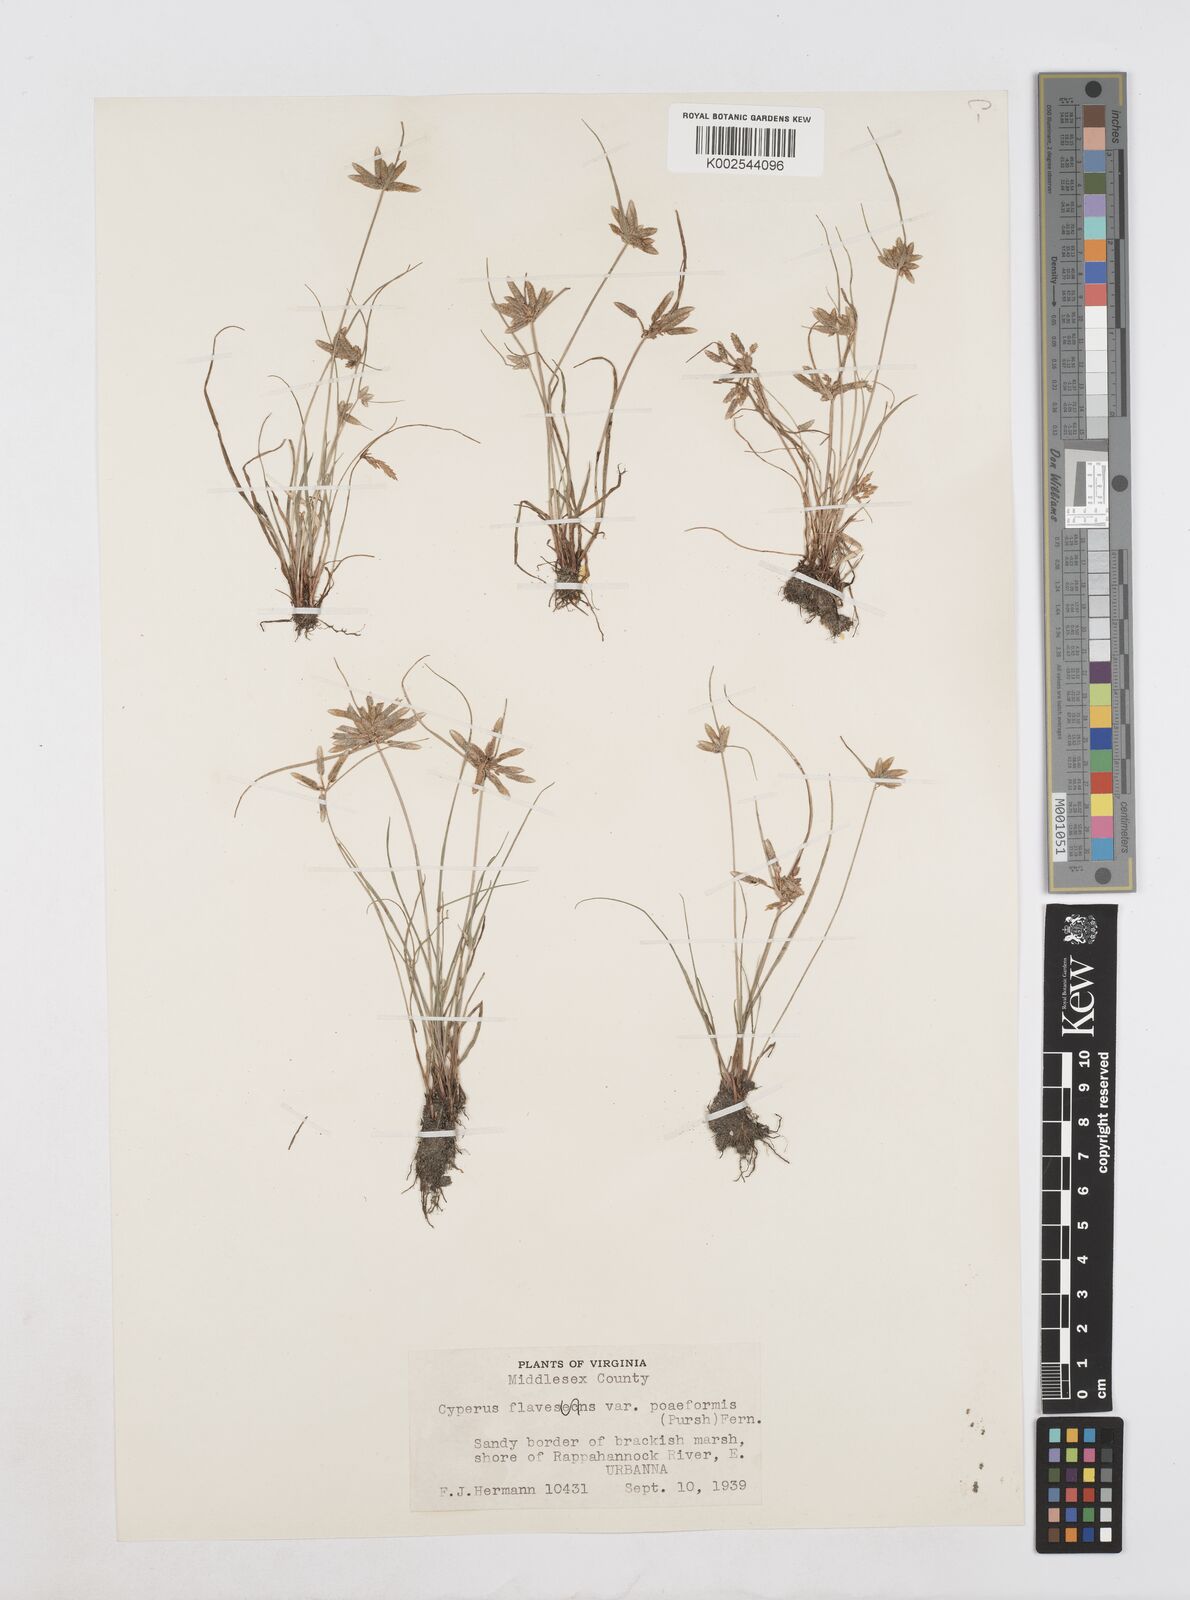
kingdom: Plantae
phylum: Tracheophyta
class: Liliopsida
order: Poales
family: Cyperaceae
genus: Cyperus
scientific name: Cyperus flavescens
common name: Yellow galingale
